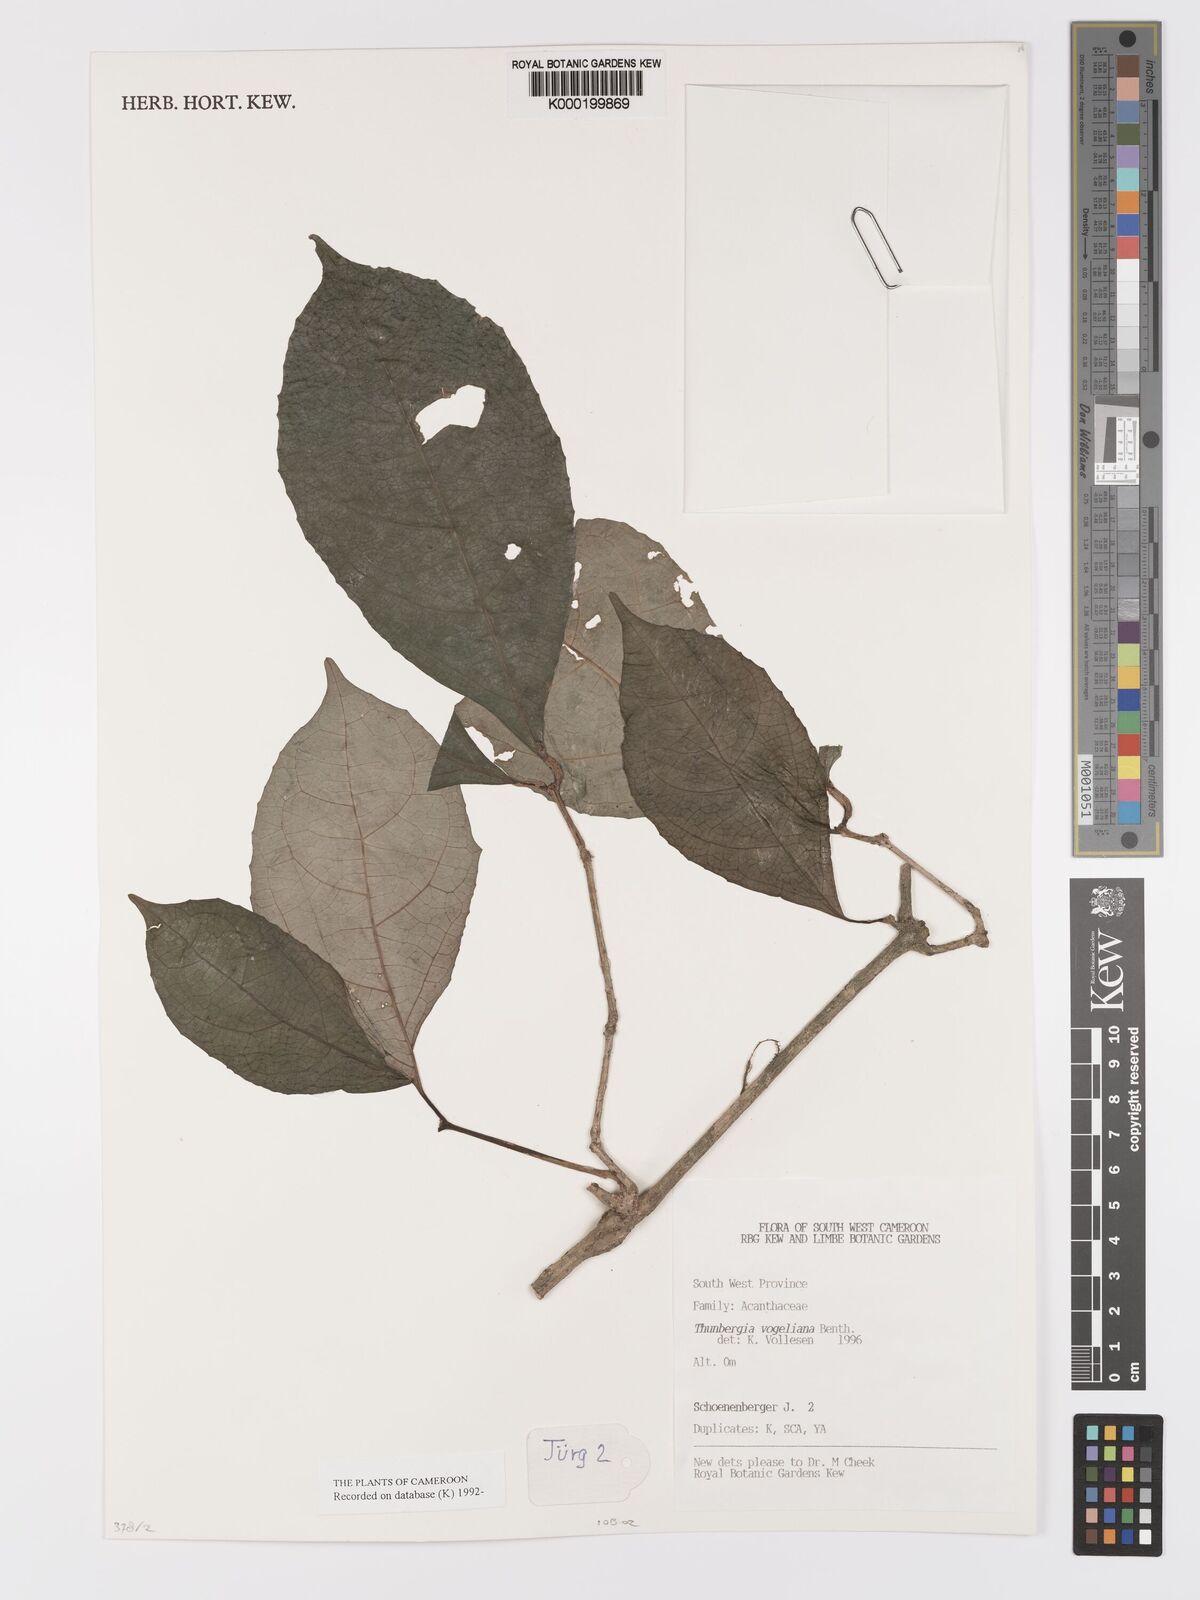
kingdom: Plantae
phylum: Tracheophyta
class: Magnoliopsida
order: Lamiales
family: Acanthaceae
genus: Thunbergia
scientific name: Thunbergia vogeliana
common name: Acanthaceae
